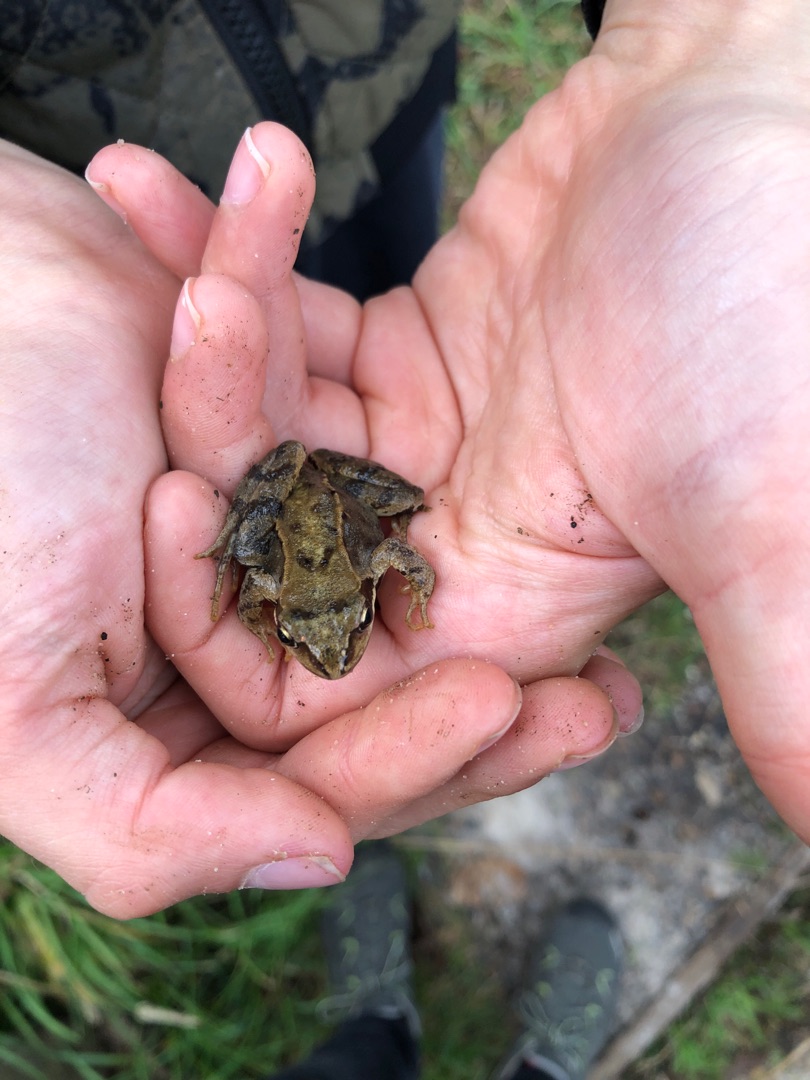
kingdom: Animalia
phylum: Chordata
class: Amphibia
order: Anura
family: Ranidae
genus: Rana
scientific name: Rana temporaria
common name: Butsnudet frø
